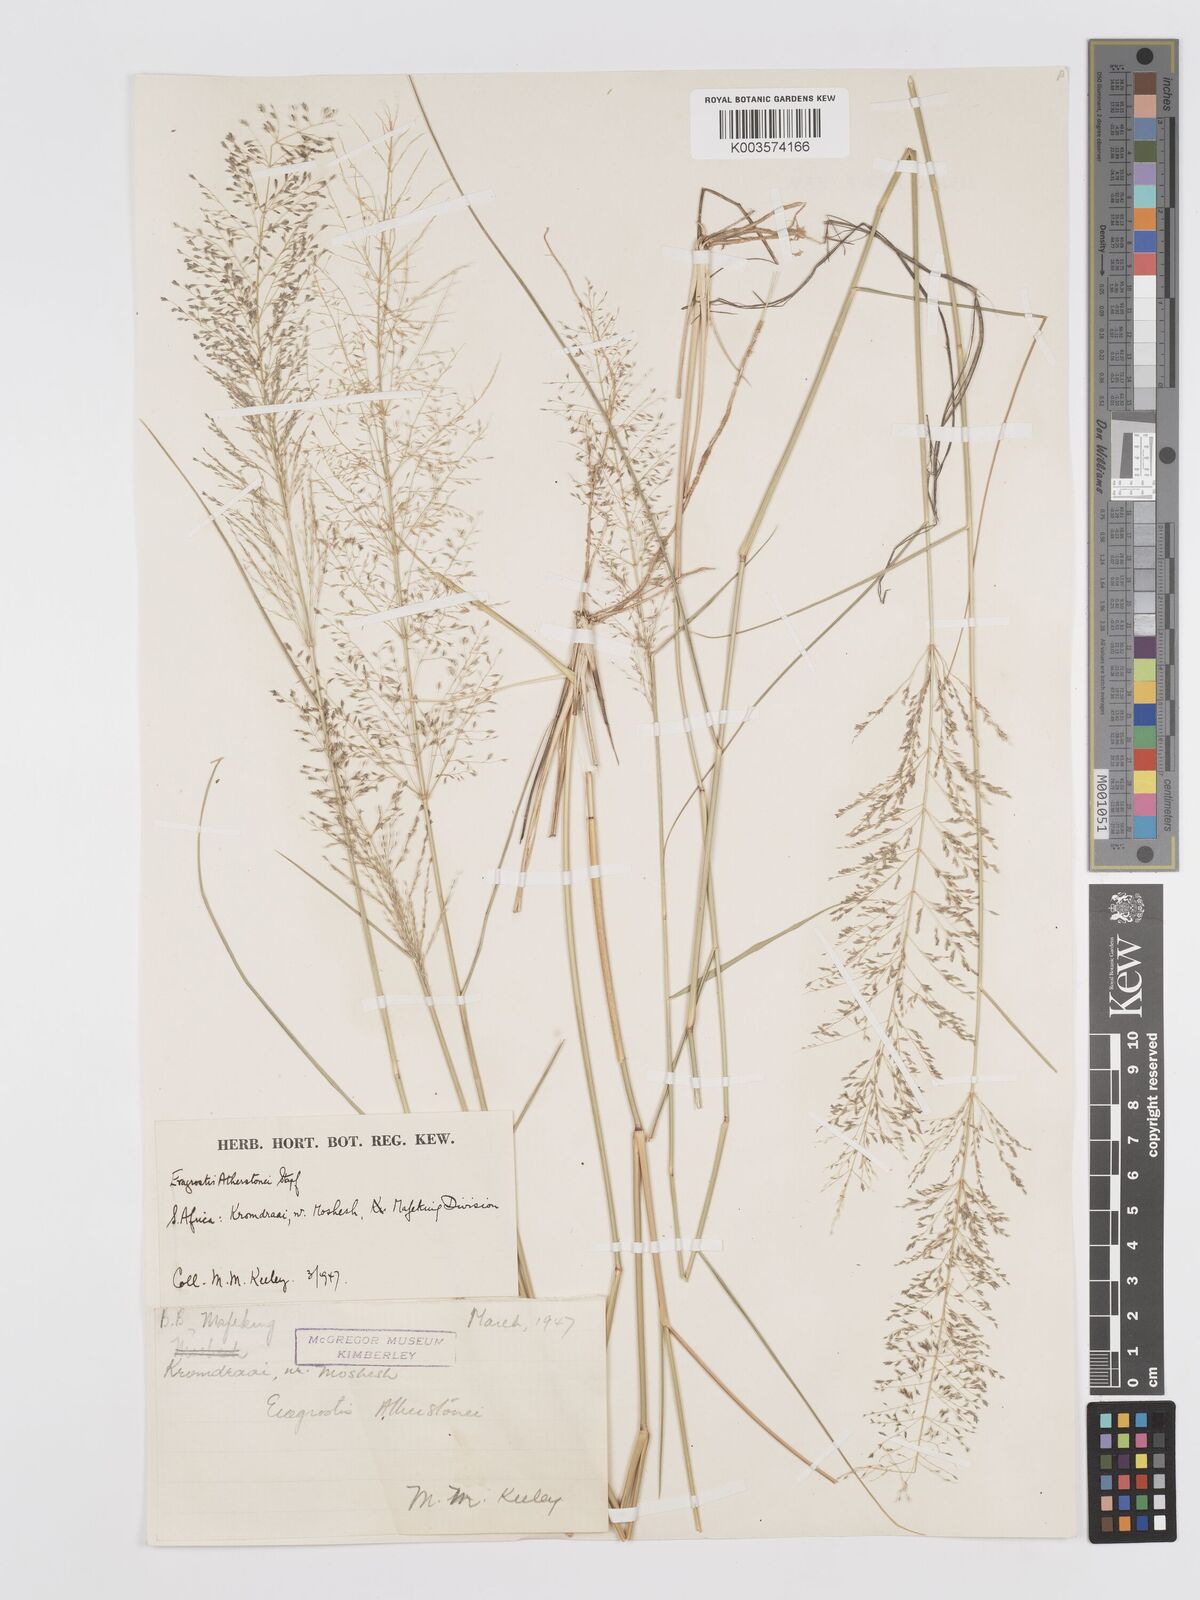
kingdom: Plantae
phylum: Tracheophyta
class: Liliopsida
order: Poales
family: Poaceae
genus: Eragrostis
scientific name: Eragrostis cylindriflora
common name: Cylinderflower lovegrass
